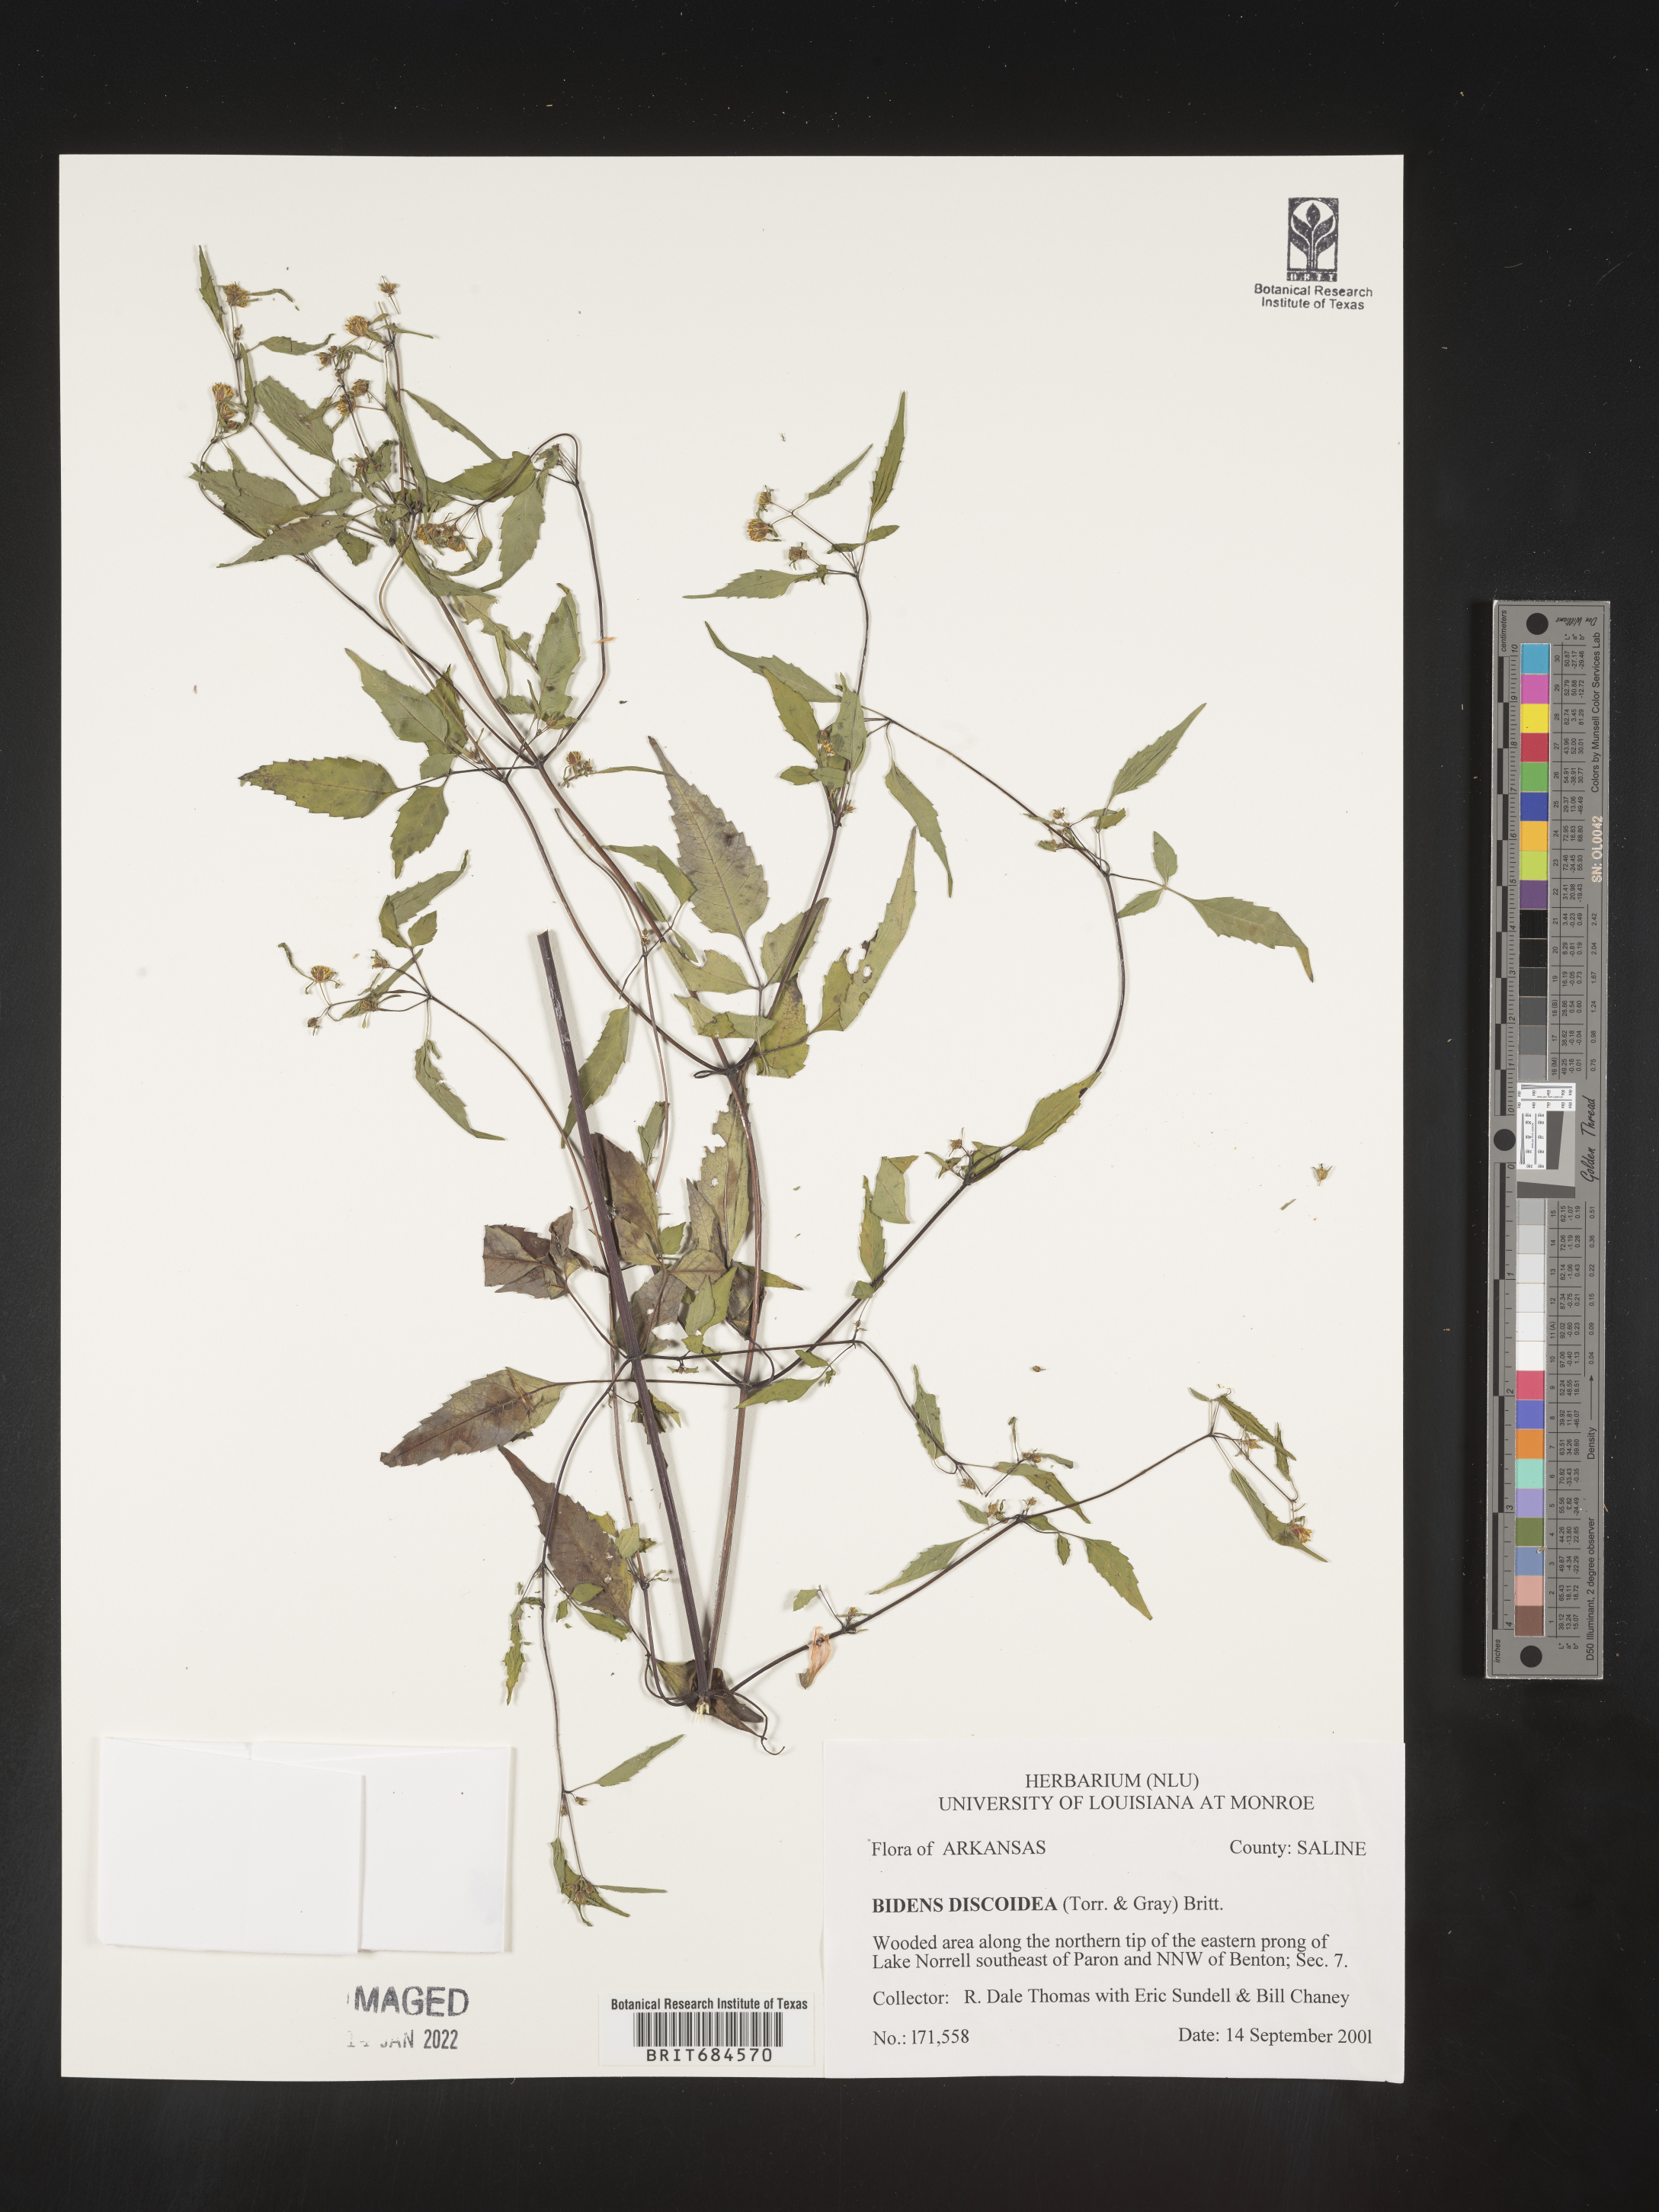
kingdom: Plantae
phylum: Tracheophyta
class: Magnoliopsida
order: Asterales
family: Asteraceae
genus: Bidens
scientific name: Bidens discoidea
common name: Discoide beggarticks
